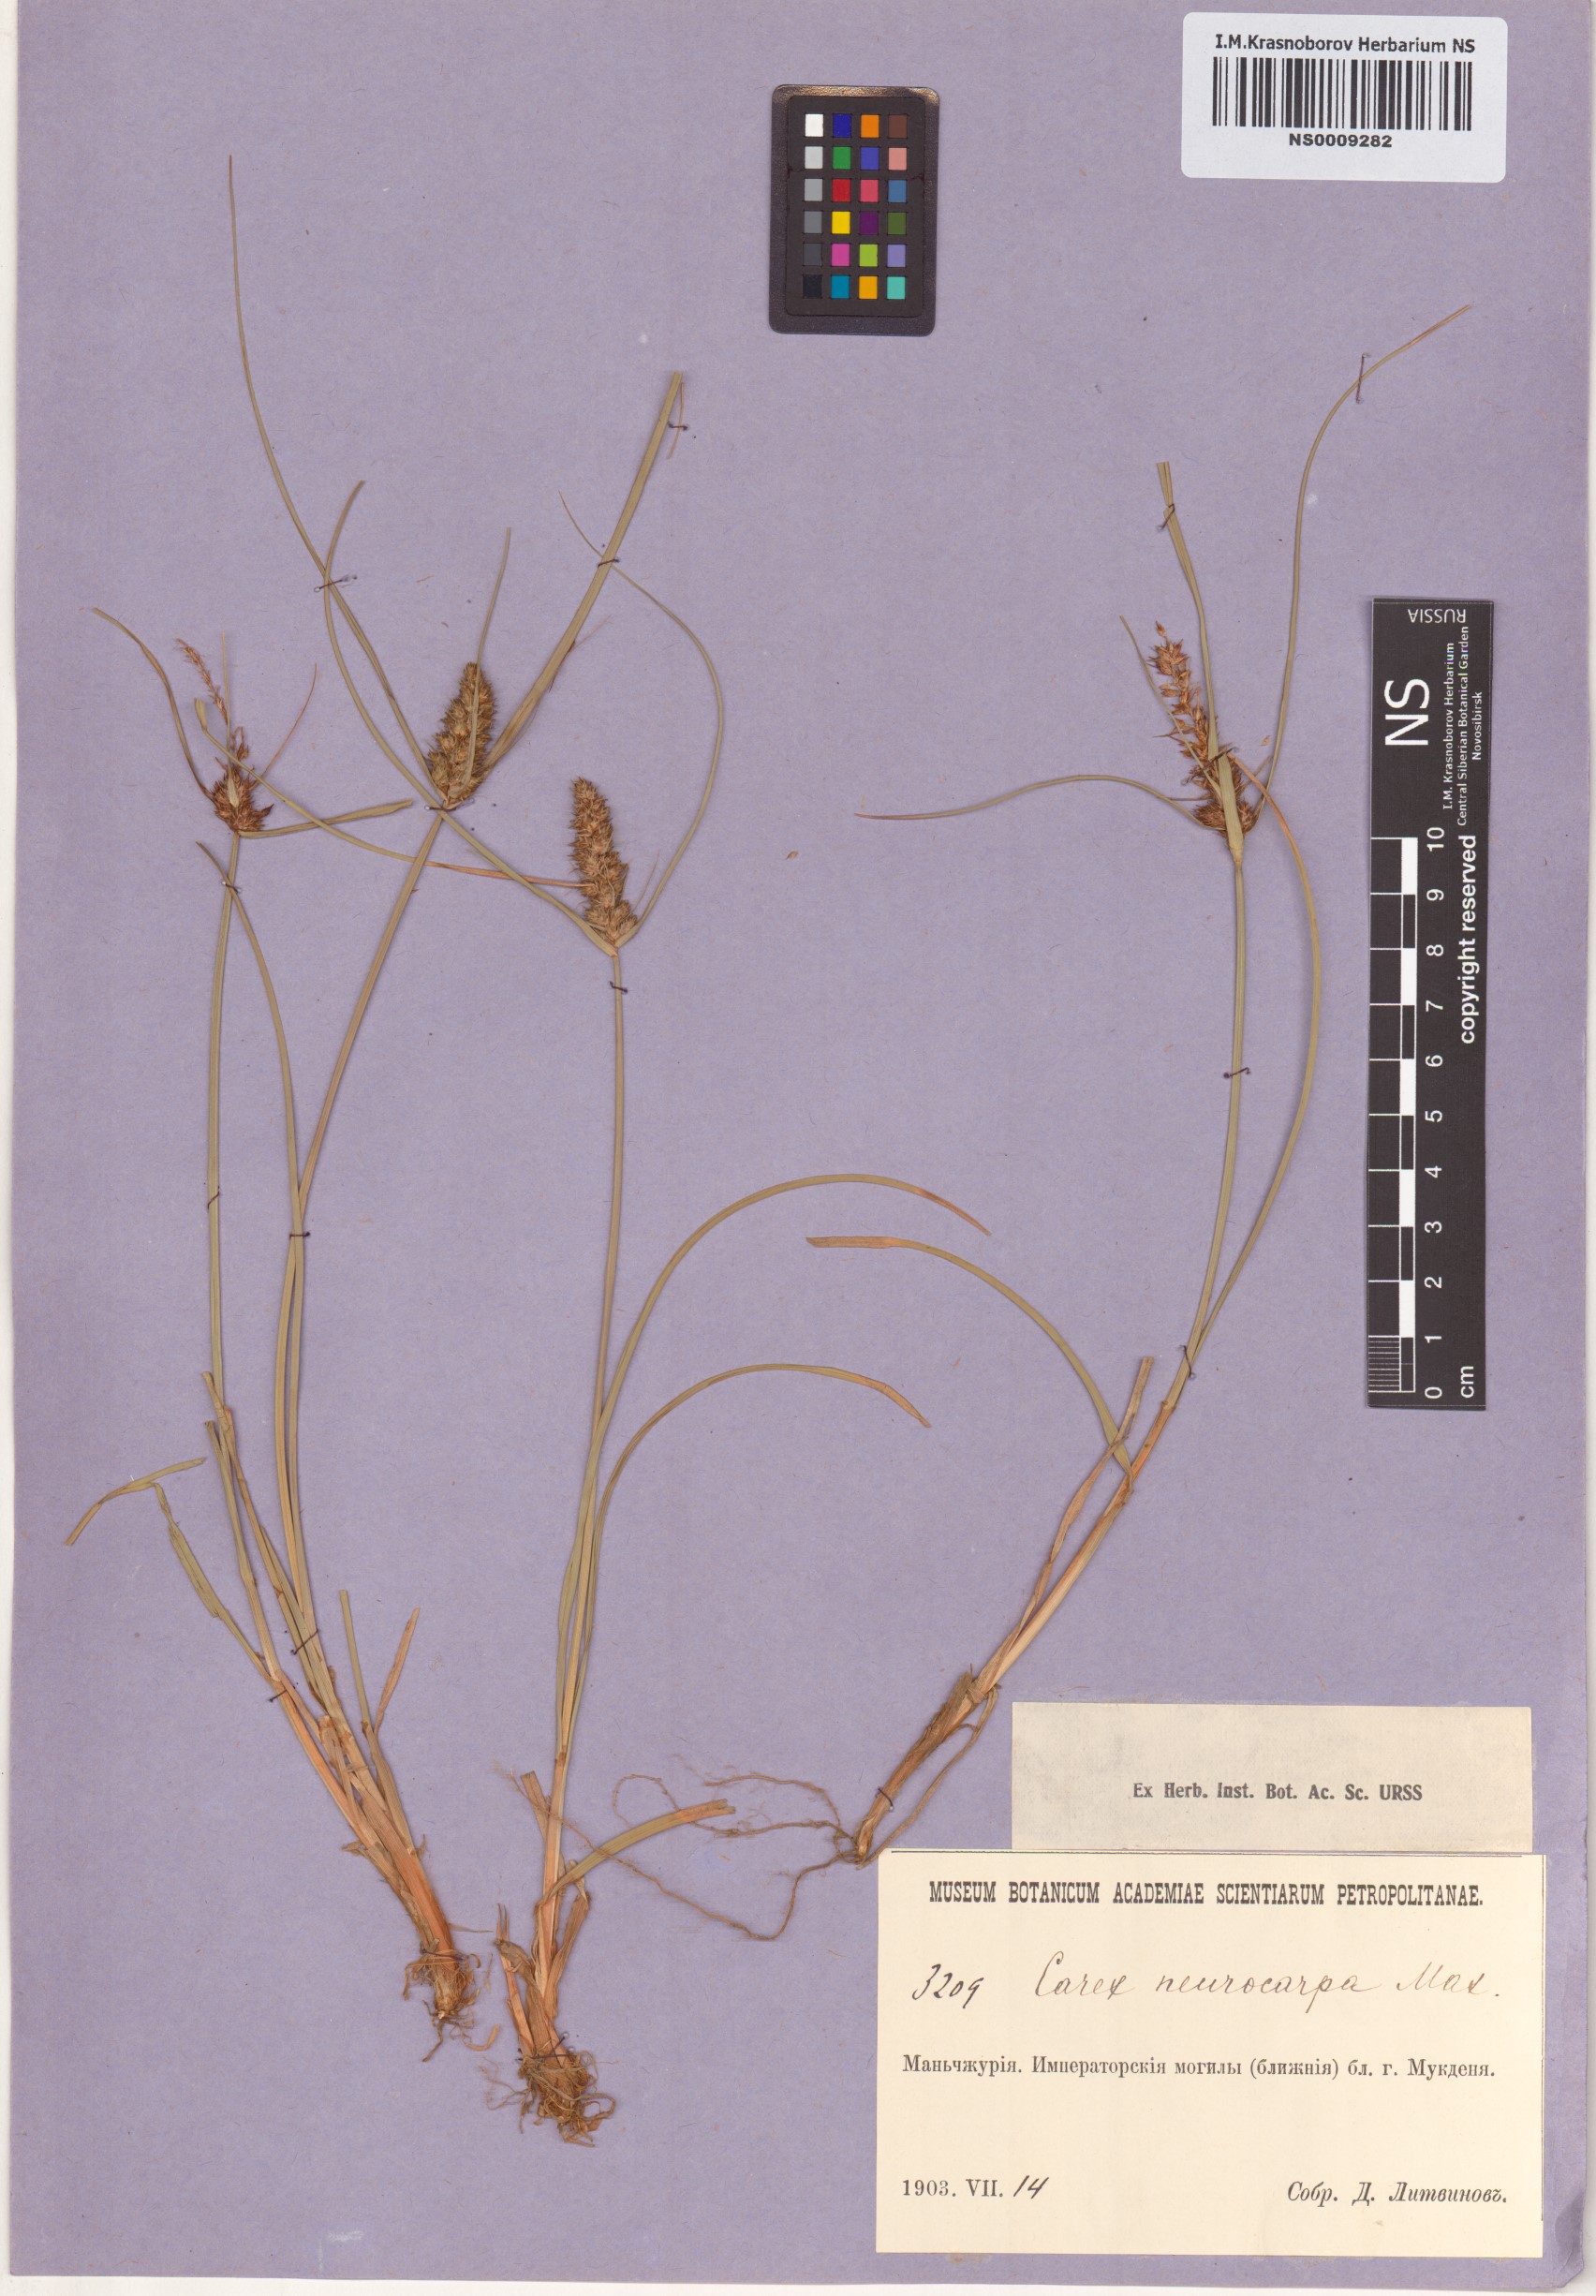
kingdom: Plantae
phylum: Tracheophyta
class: Liliopsida
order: Poales
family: Cyperaceae
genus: Carex
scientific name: Carex neurocarpa
